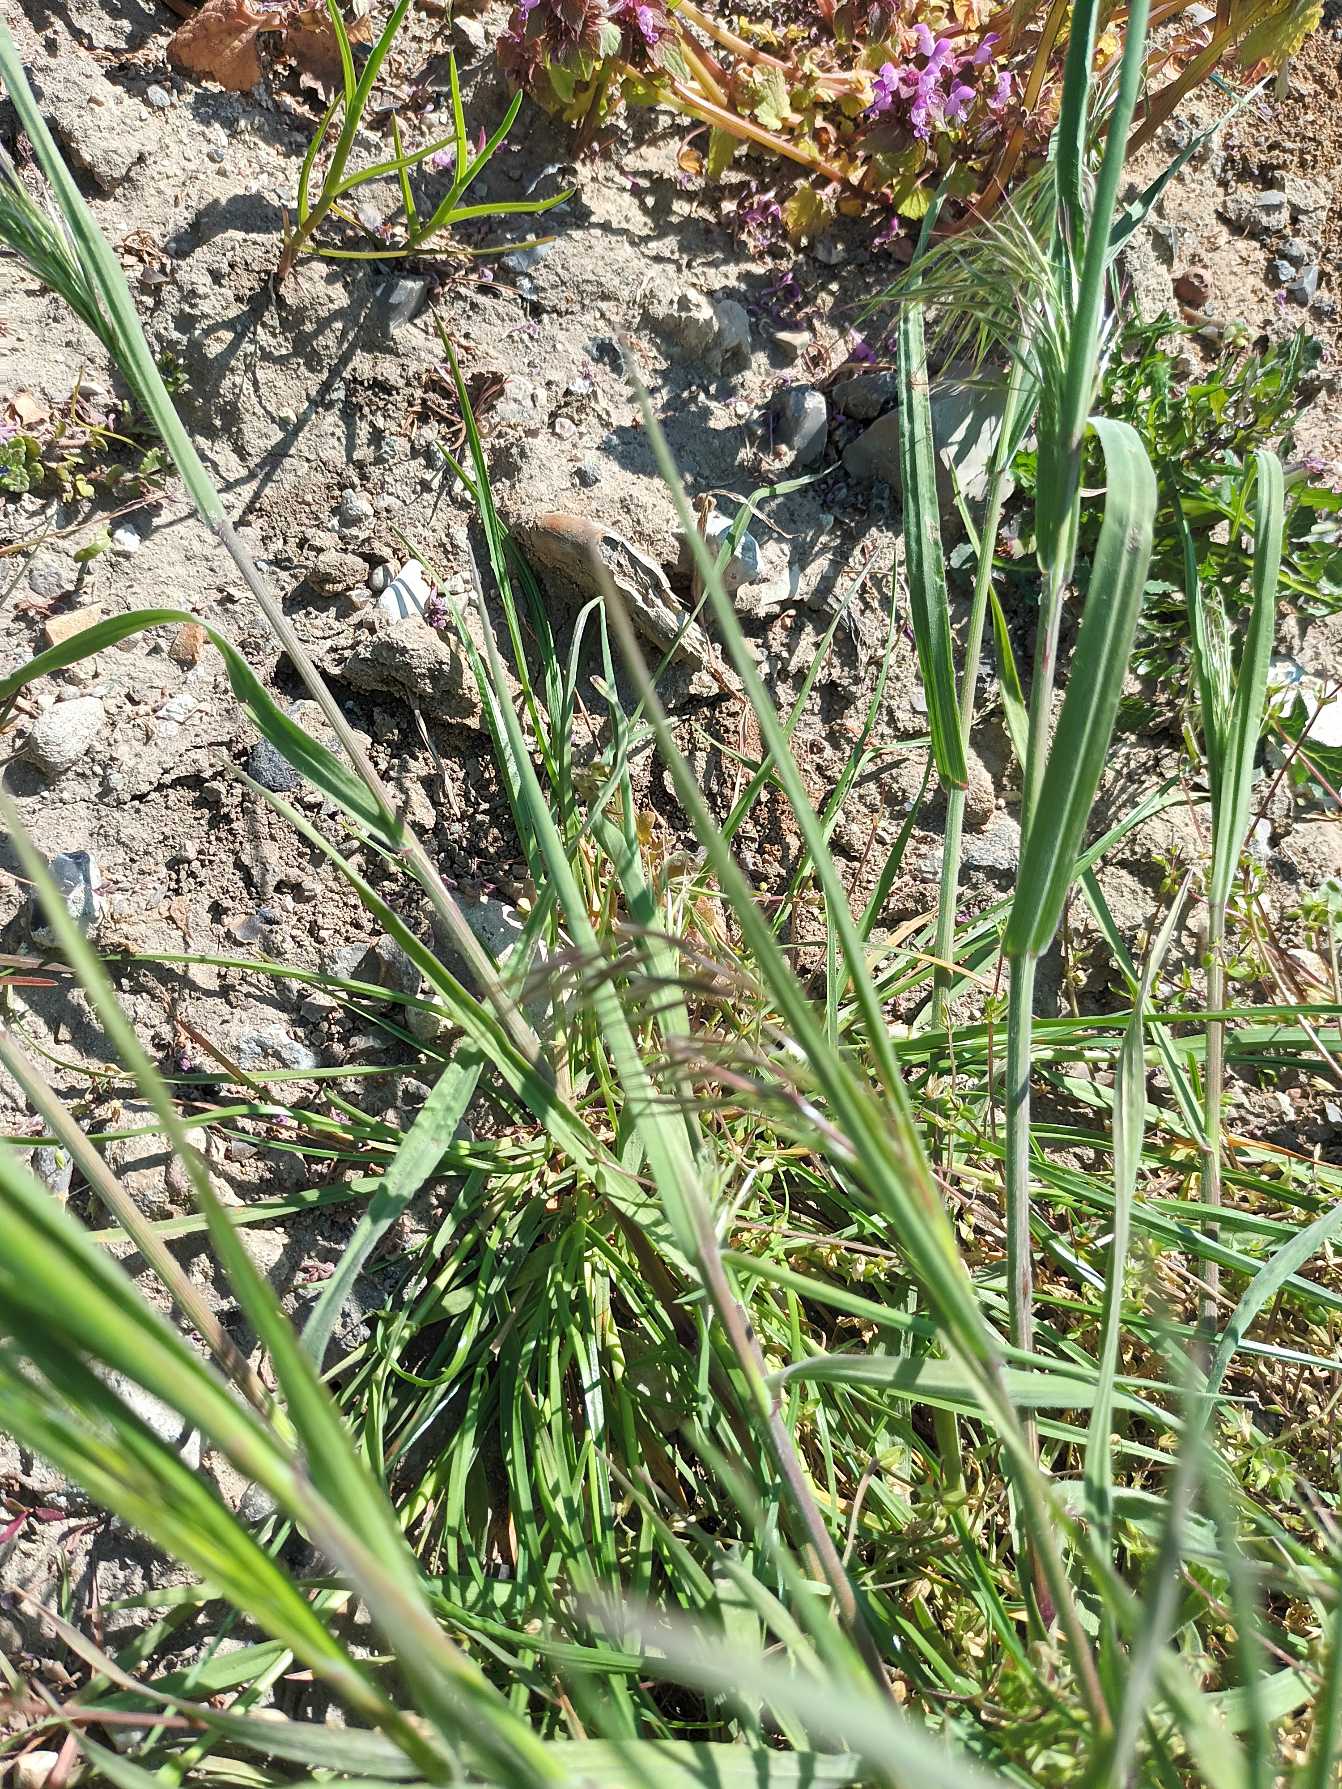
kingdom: Plantae
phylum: Tracheophyta
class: Liliopsida
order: Poales
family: Poaceae
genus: Bromus
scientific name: Bromus tectorum
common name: Tag-hejre
